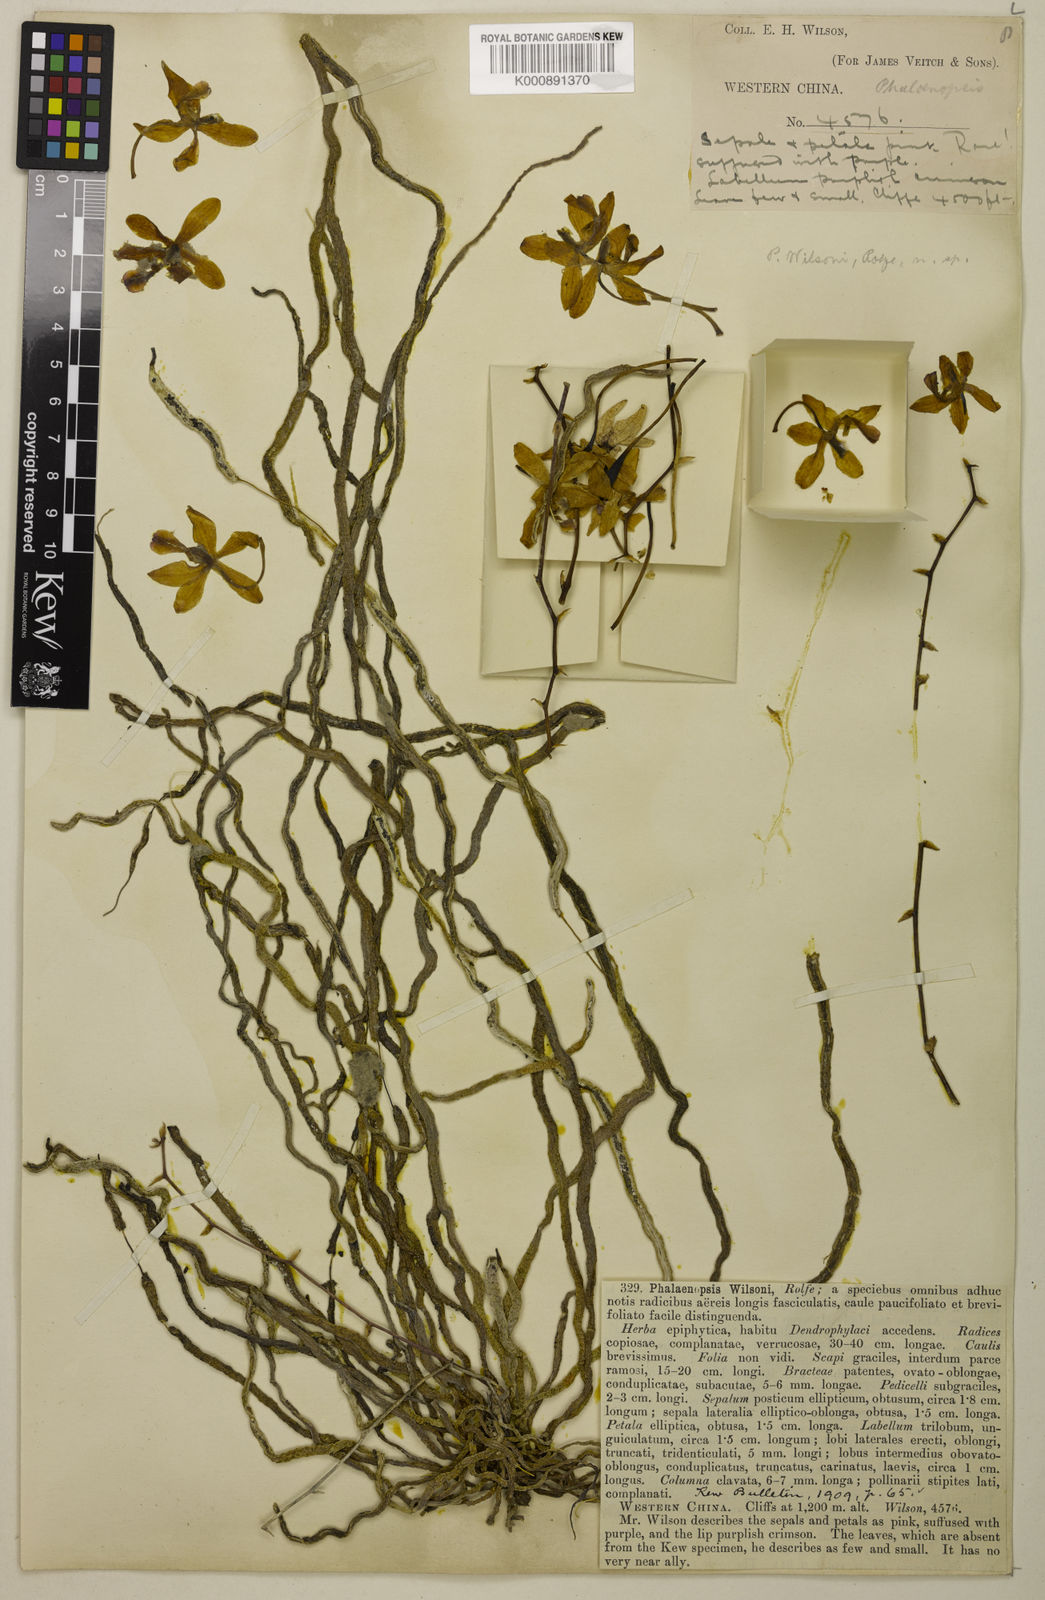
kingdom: Plantae
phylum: Tracheophyta
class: Liliopsida
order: Asparagales
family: Orchidaceae
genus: Phalaenopsis
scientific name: Phalaenopsis wilsonii
